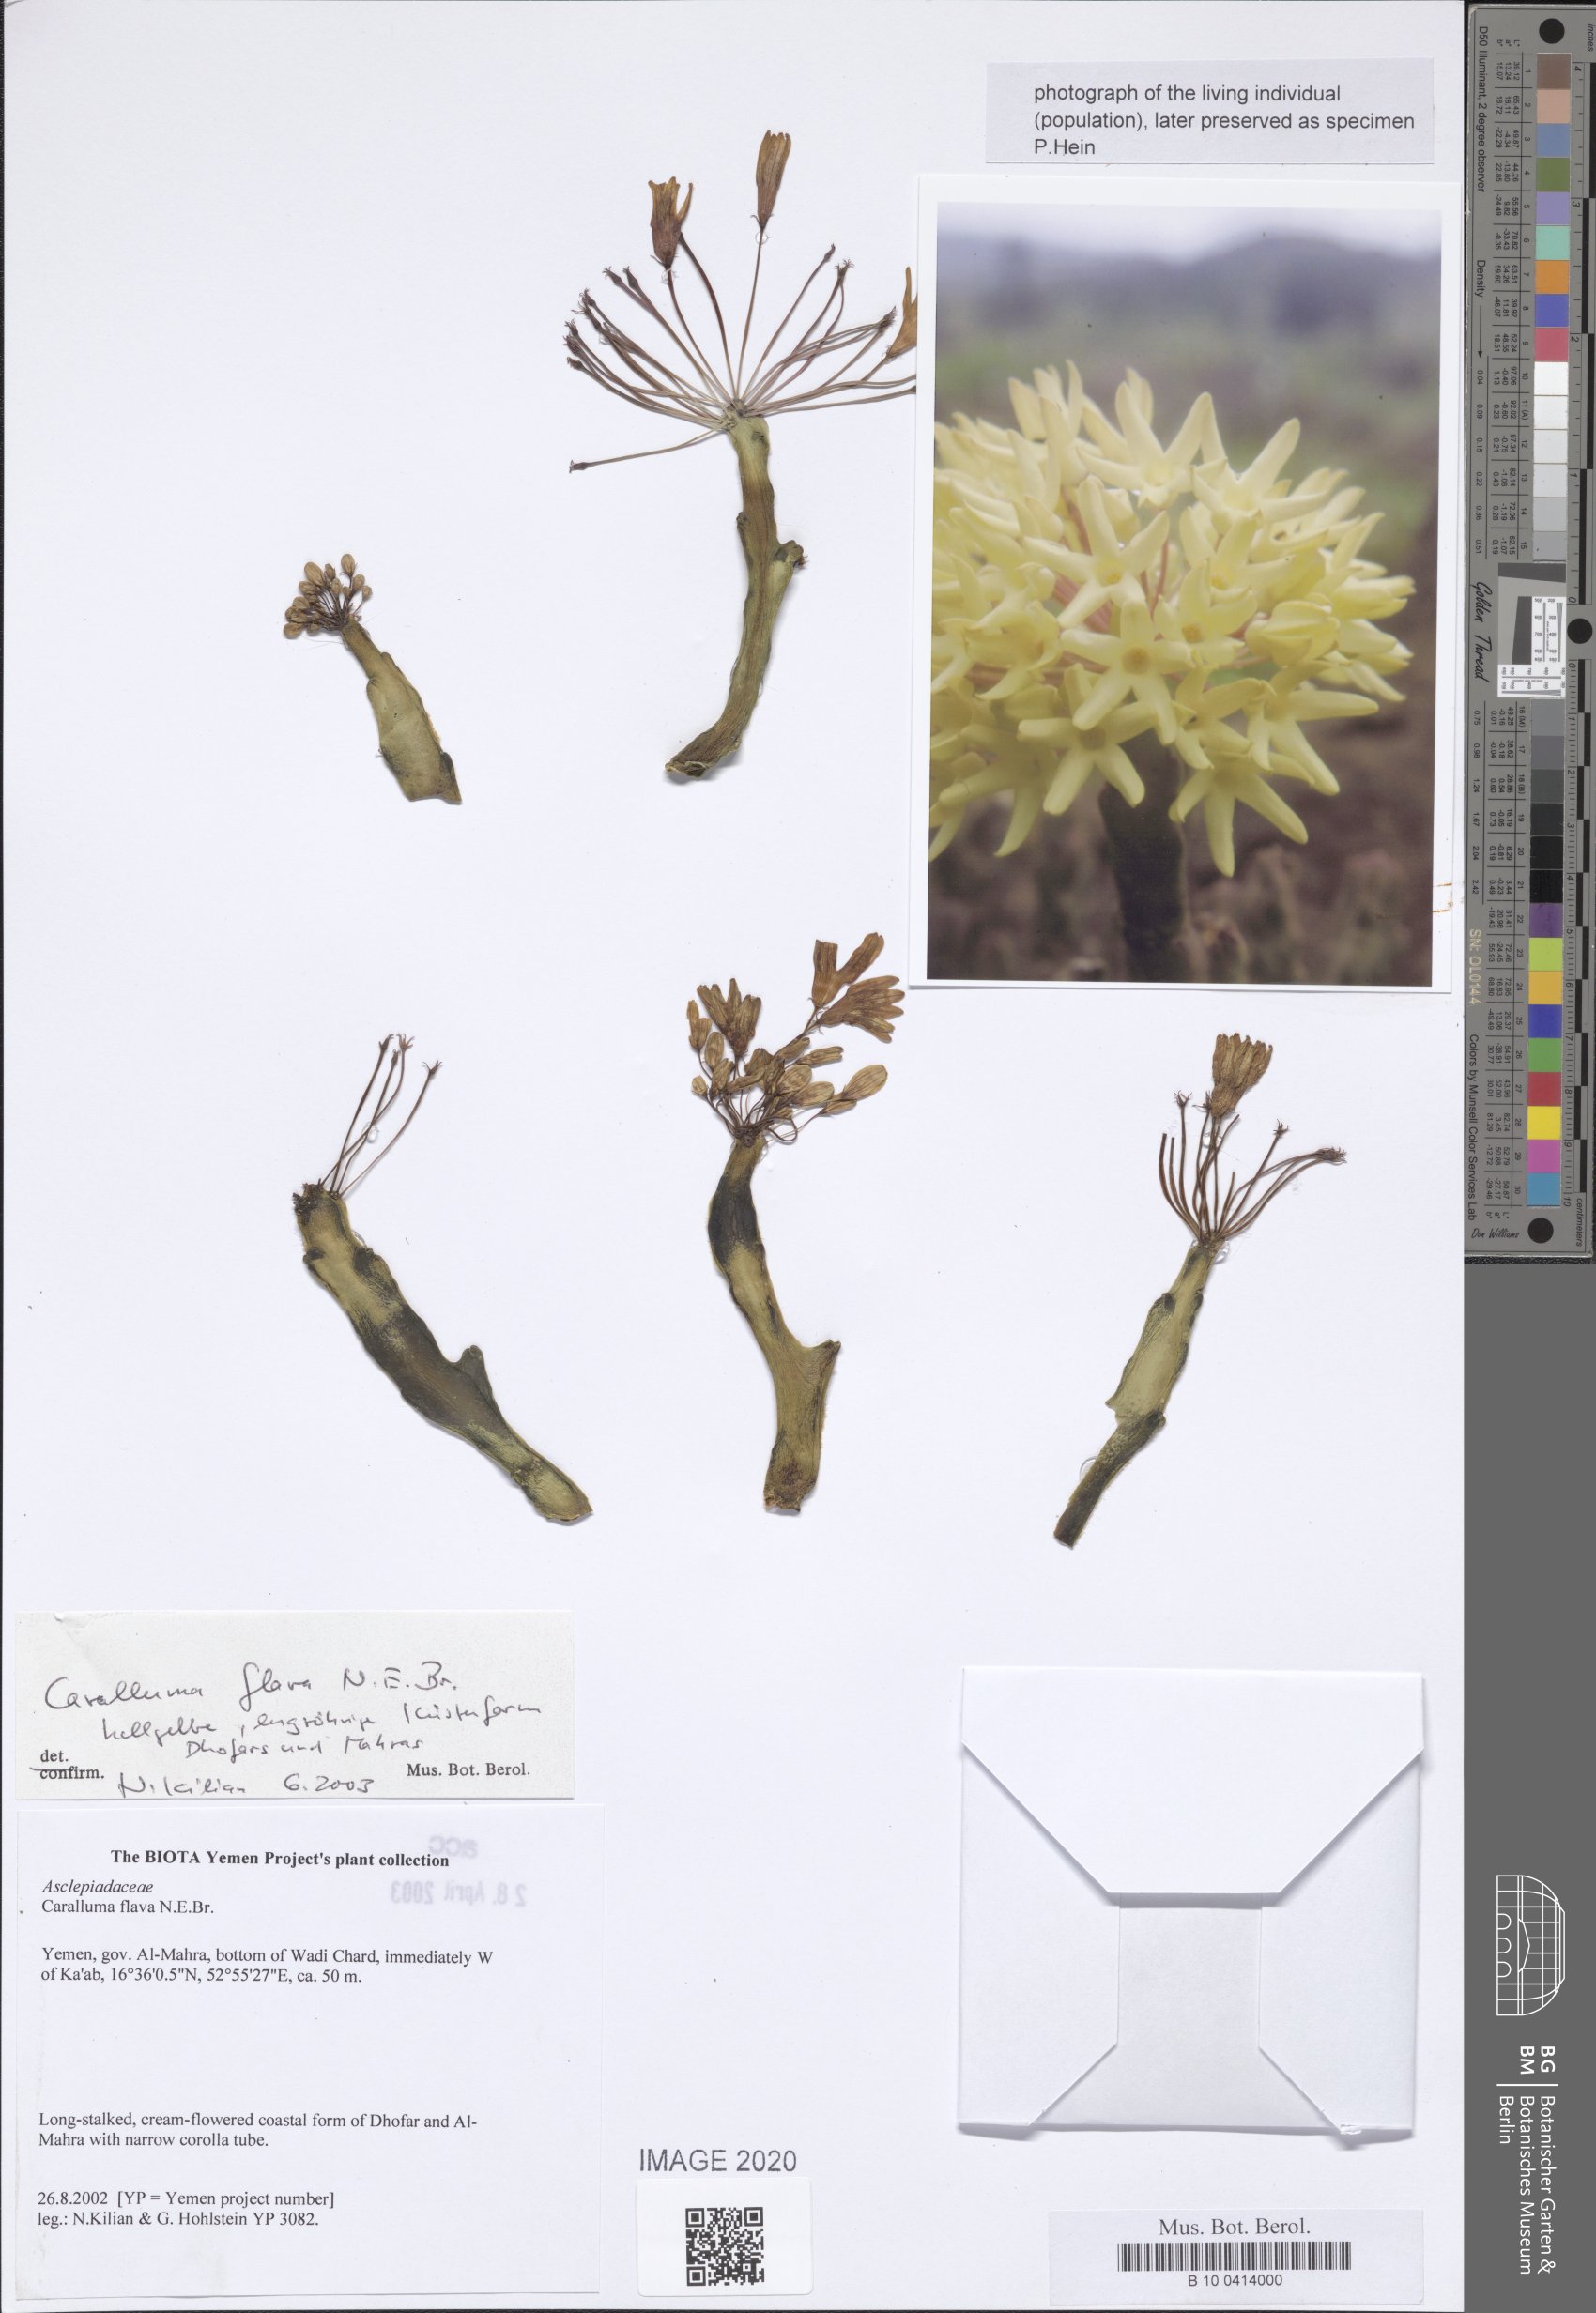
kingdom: Plantae
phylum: Tracheophyta
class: Magnoliopsida
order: Gentianales
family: Apocynaceae
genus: Ceropegia
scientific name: Ceropegia flava
